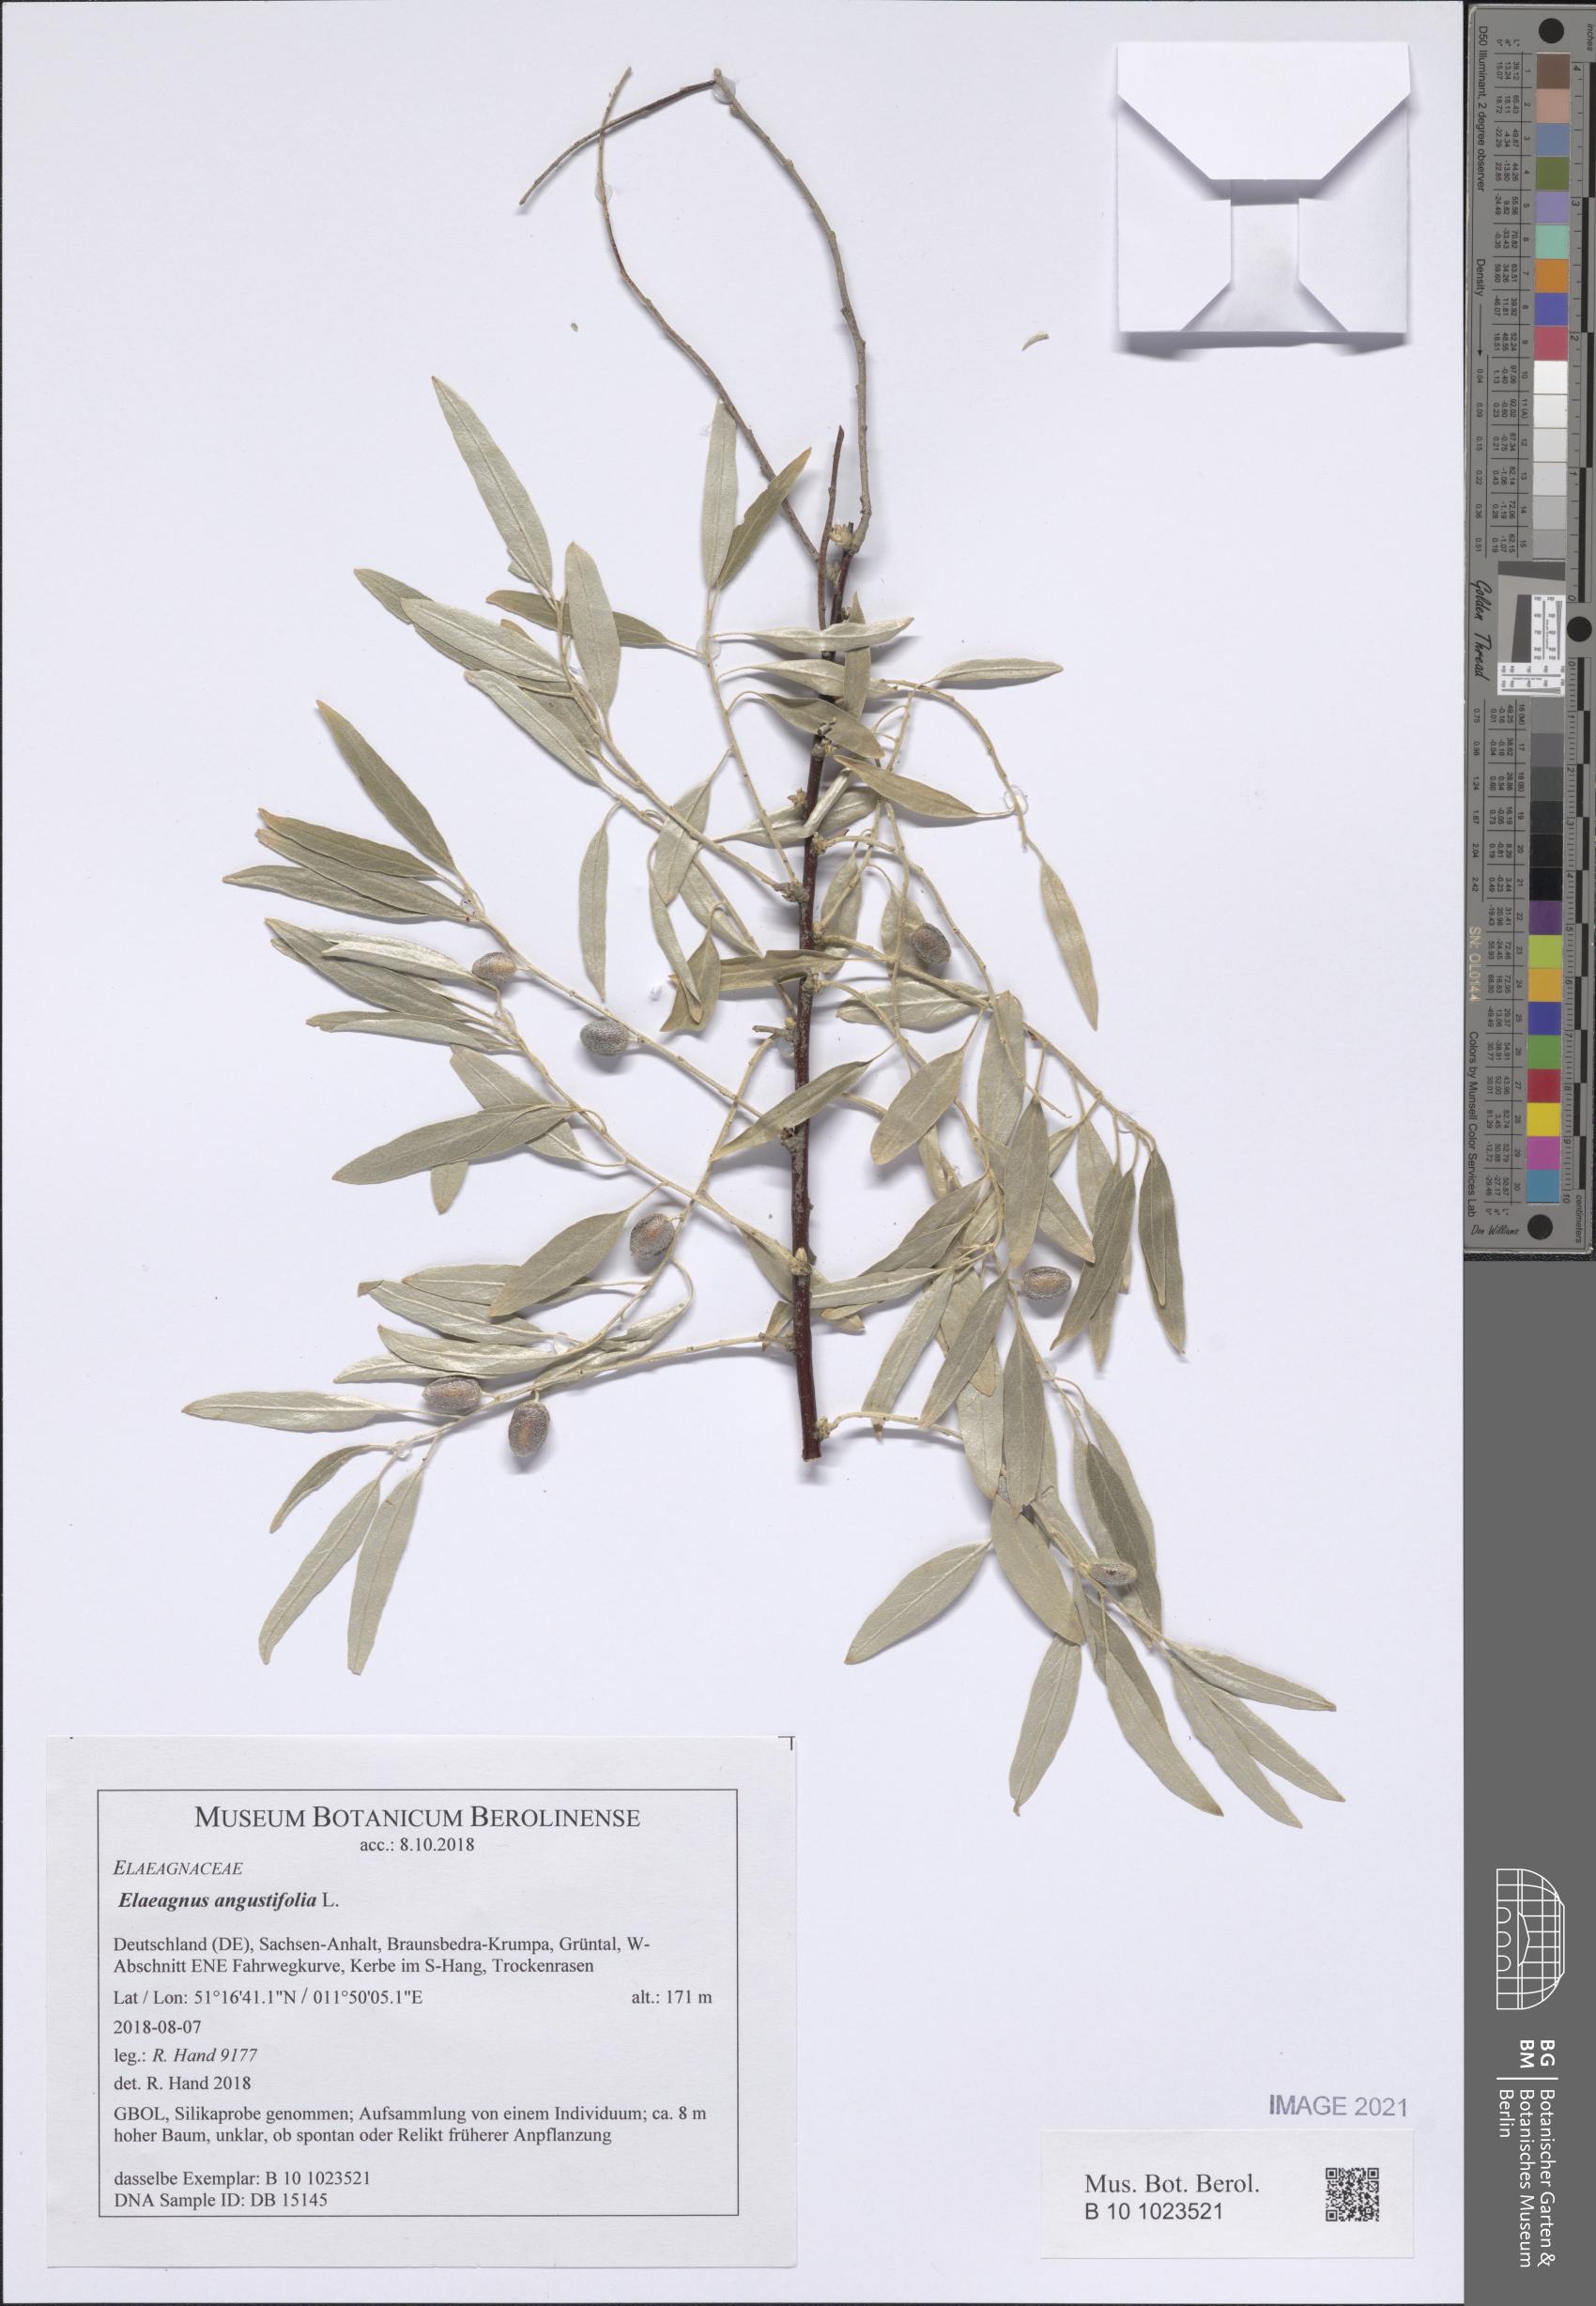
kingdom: Plantae
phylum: Tracheophyta
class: Magnoliopsida
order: Rosales
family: Elaeagnaceae
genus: Elaeagnus
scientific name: Elaeagnus angustifolia
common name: Russian olive
